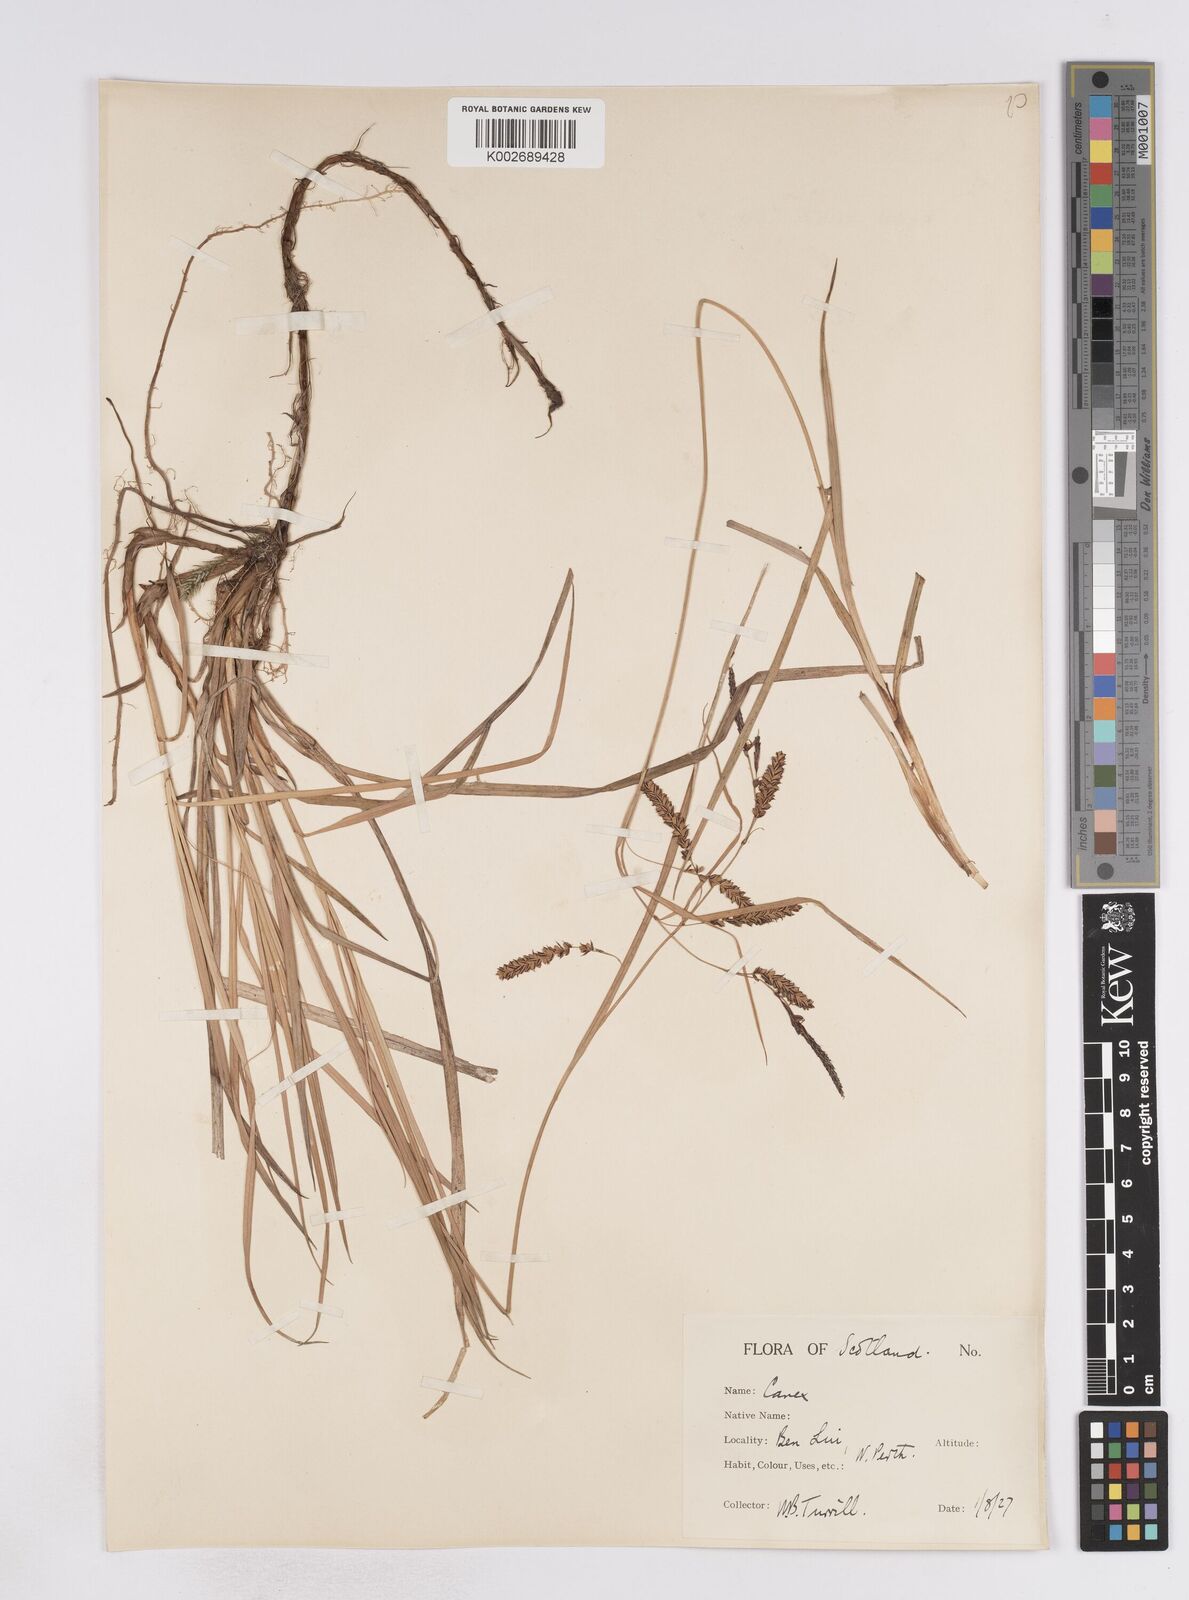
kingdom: Plantae
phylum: Tracheophyta
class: Liliopsida
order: Poales
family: Cyperaceae
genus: Carex
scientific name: Carex flacca
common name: Glaucous sedge
